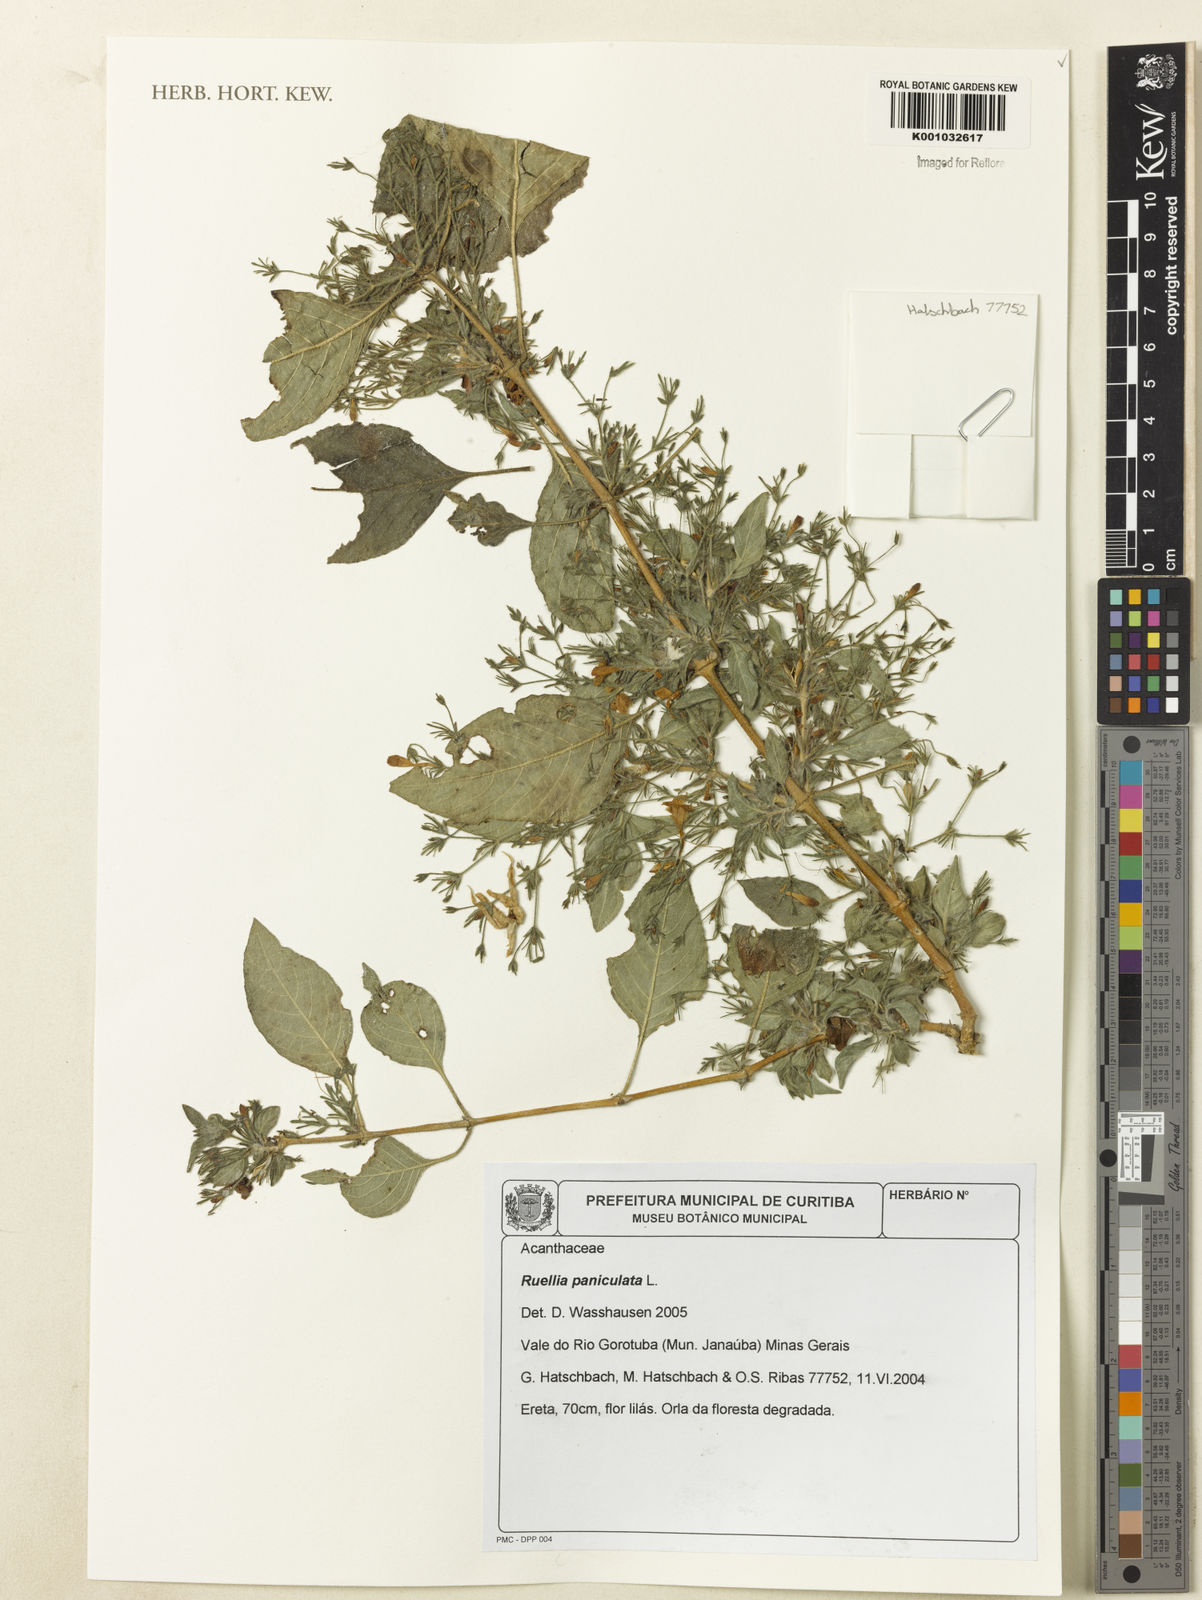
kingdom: Plantae
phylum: Tracheophyta
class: Magnoliopsida
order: Lamiales
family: Acanthaceae
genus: Ruellia
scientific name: Ruellia paniculata
